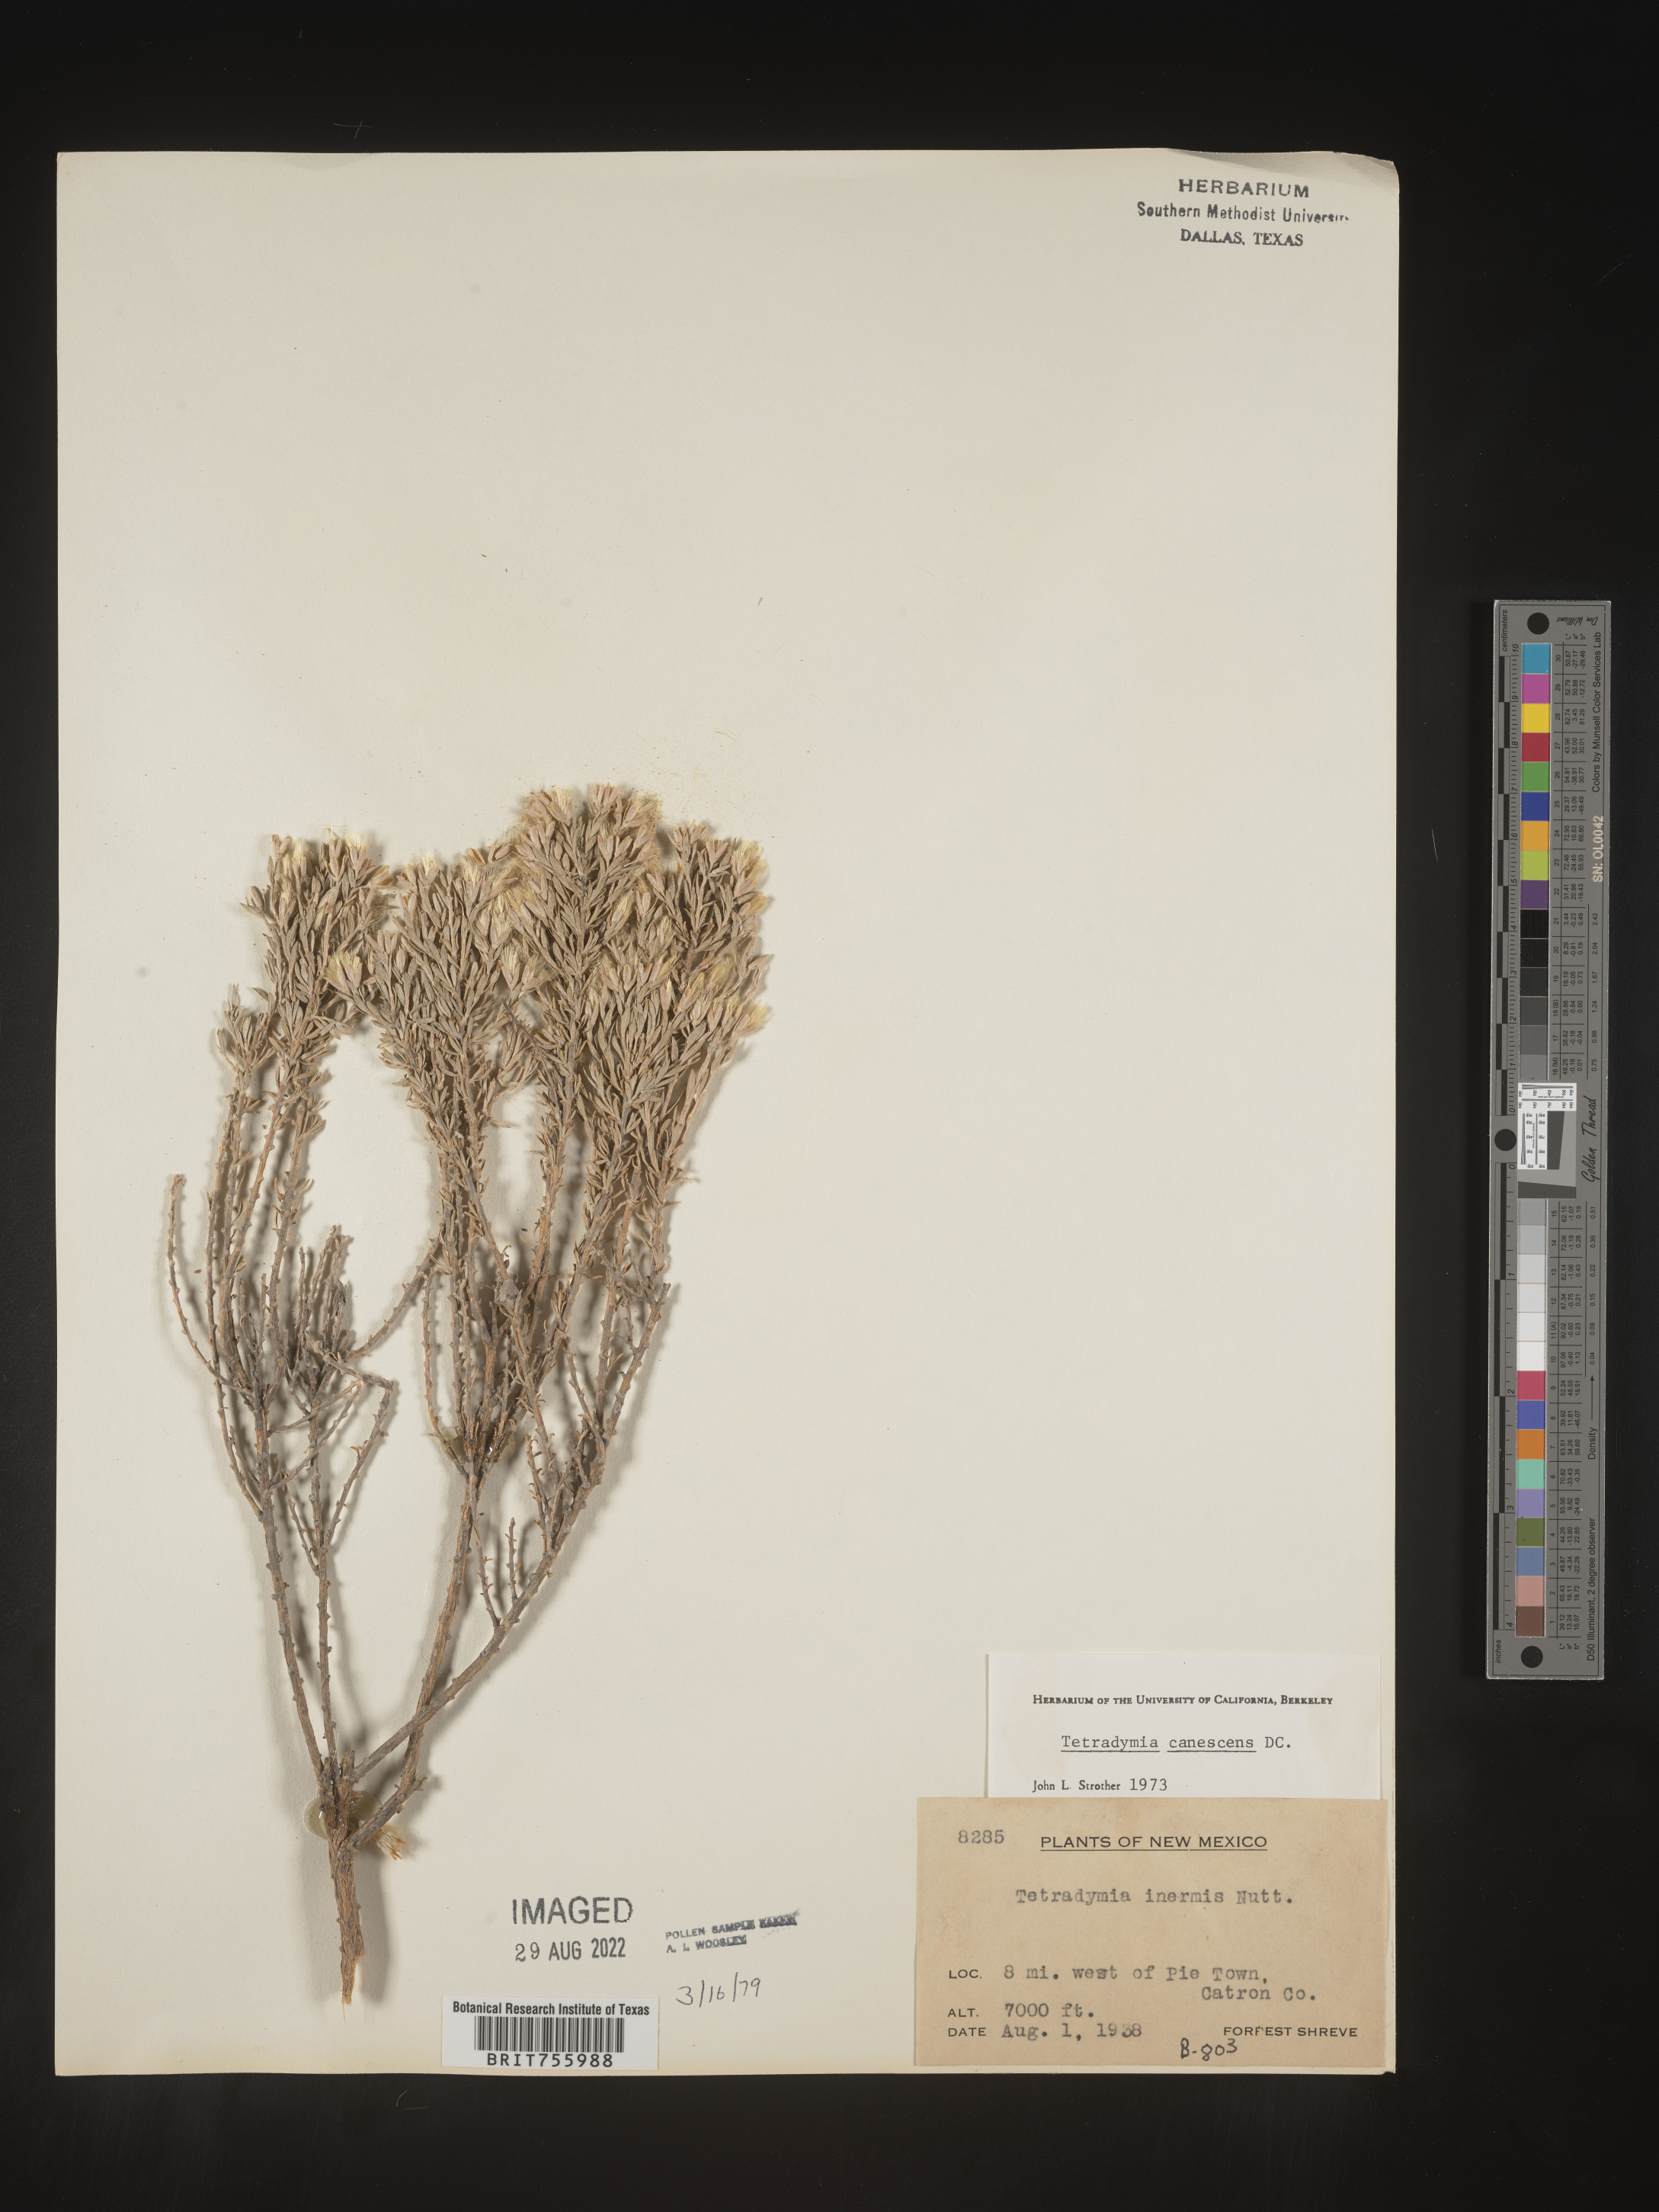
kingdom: Plantae
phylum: Tracheophyta
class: Magnoliopsida
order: Asterales
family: Asteraceae
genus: Tetradymia
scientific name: Tetradymia canescens
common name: Spineless horsebrush
